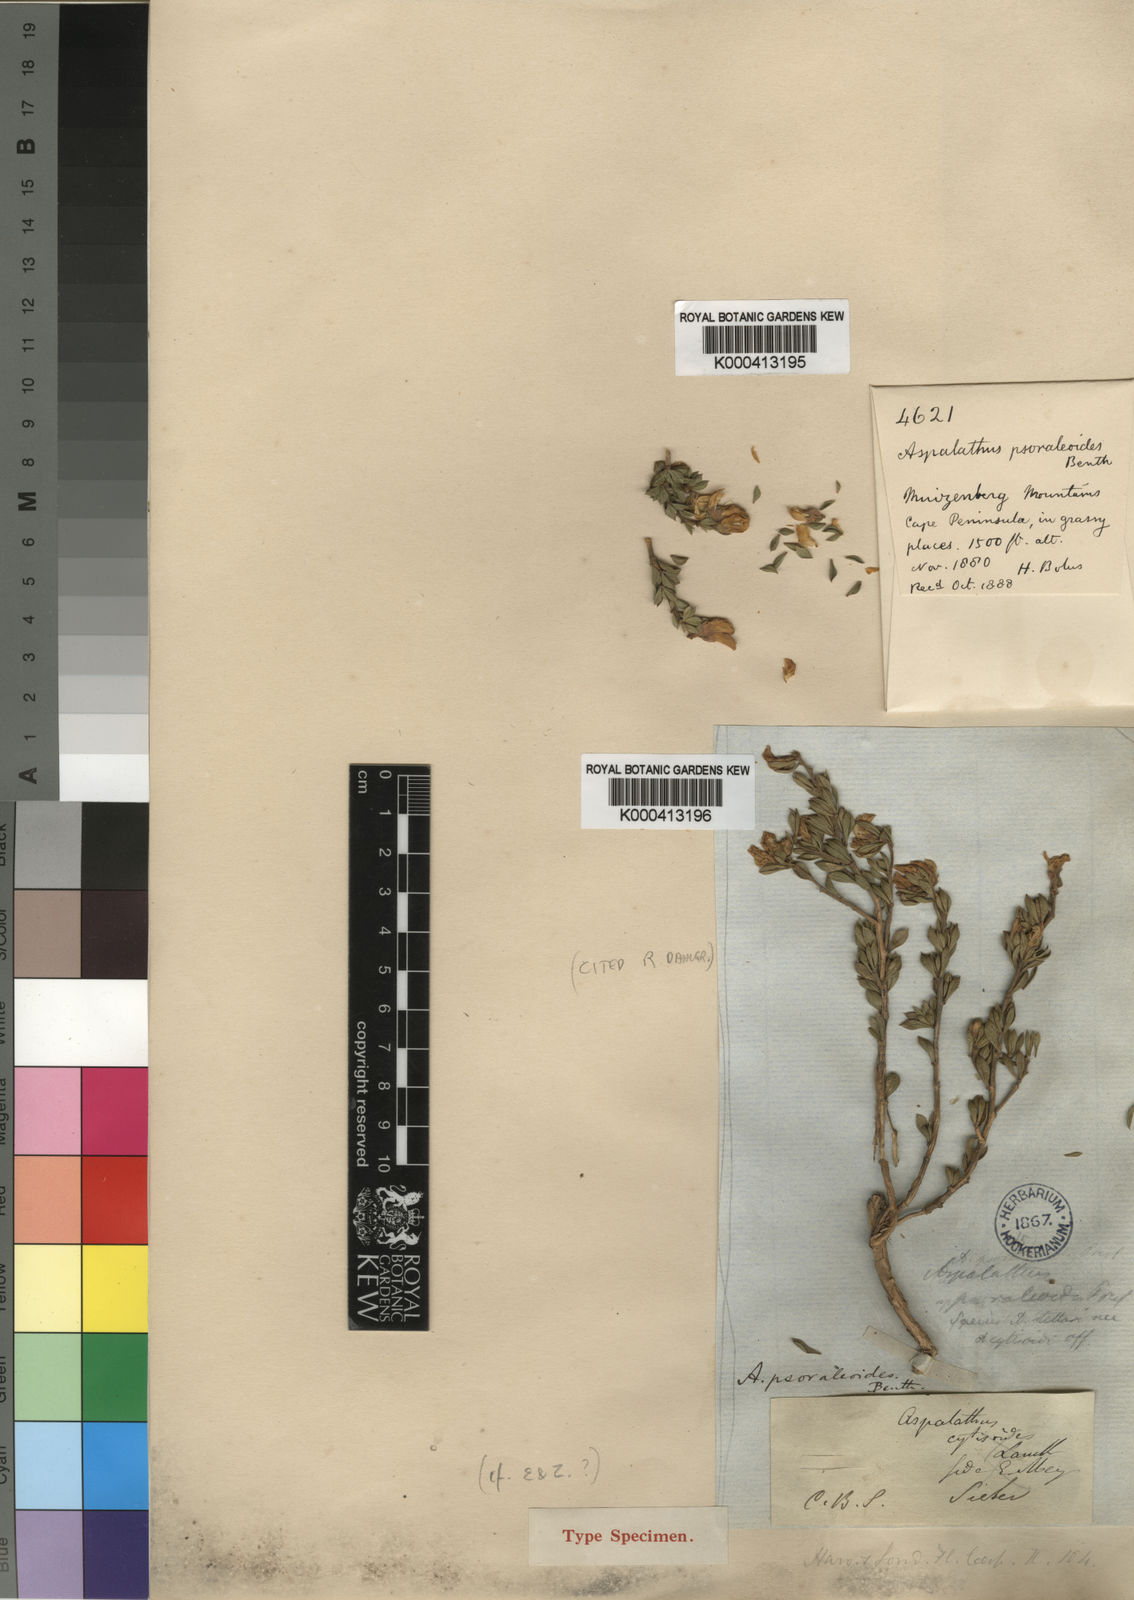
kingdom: Plantae
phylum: Tracheophyta
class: Magnoliopsida
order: Fabales
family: Fabaceae
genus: Aspalathus
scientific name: Aspalathus psoraleoides
